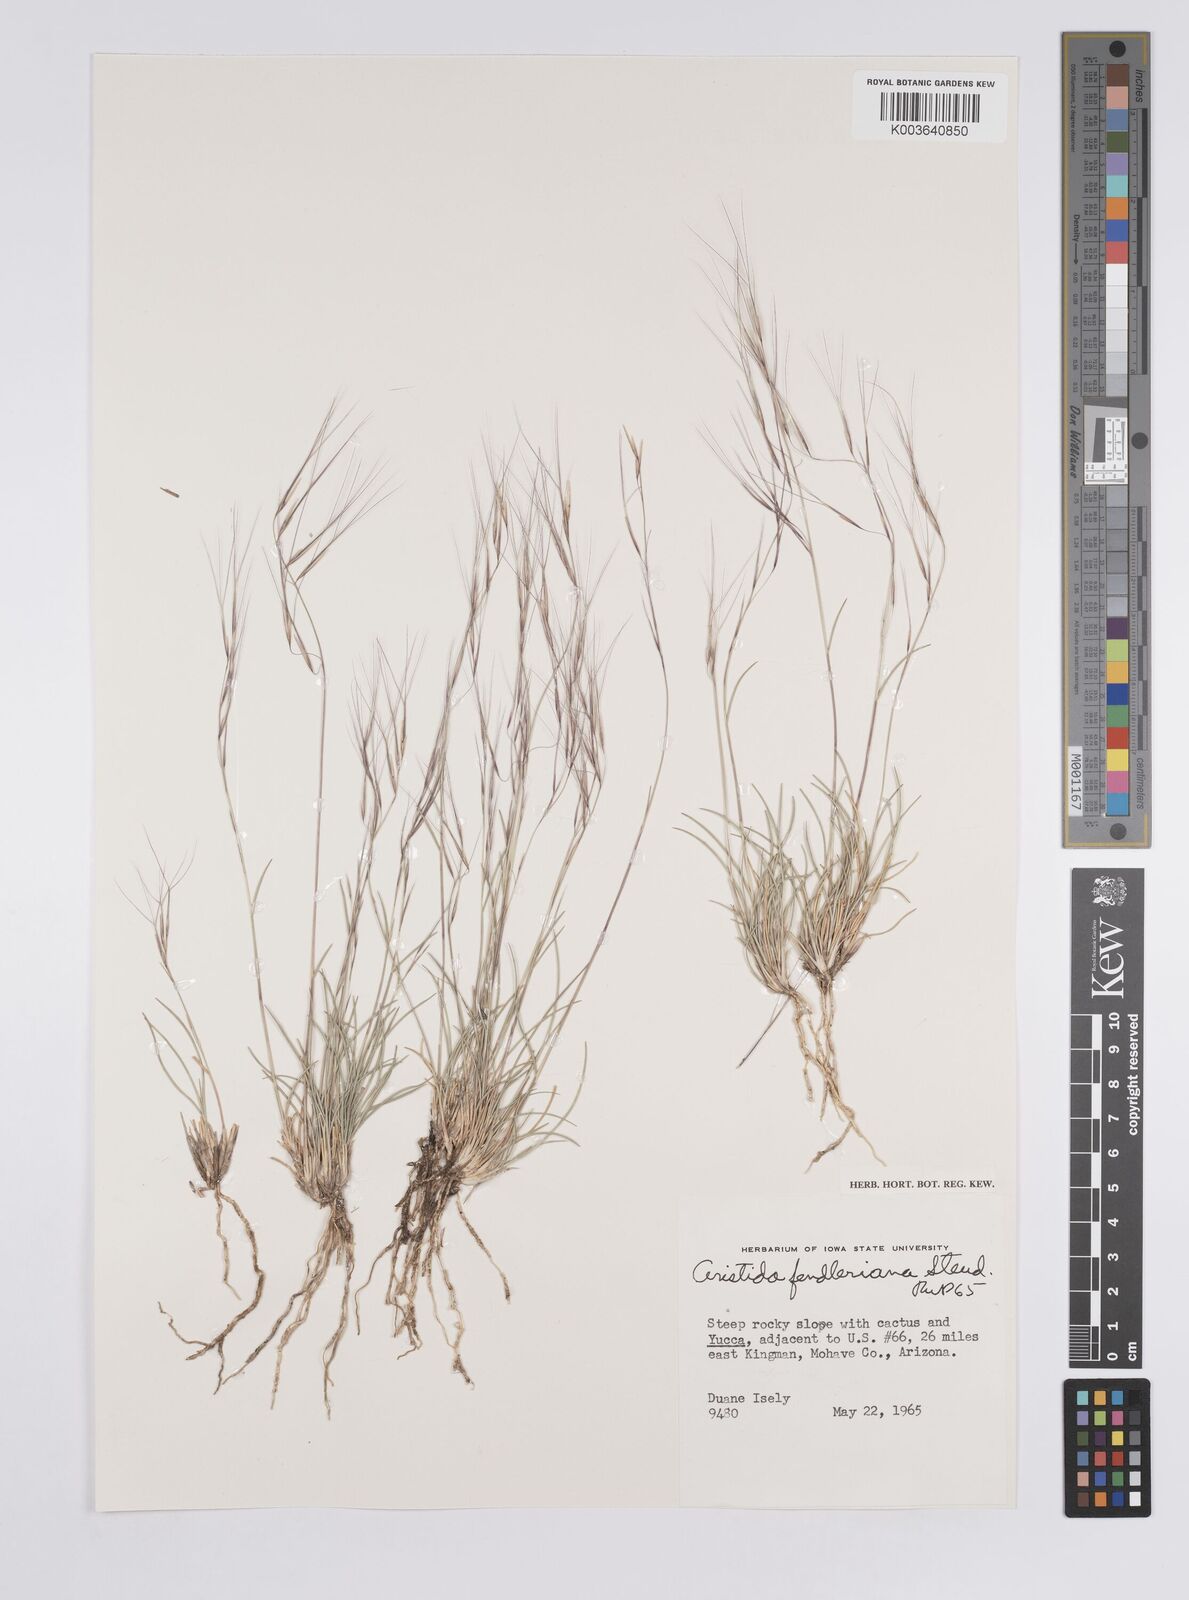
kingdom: Plantae
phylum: Tracheophyta
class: Liliopsida
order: Poales
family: Poaceae
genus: Aristida
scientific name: Aristida purpurea
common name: Purple threeawn
